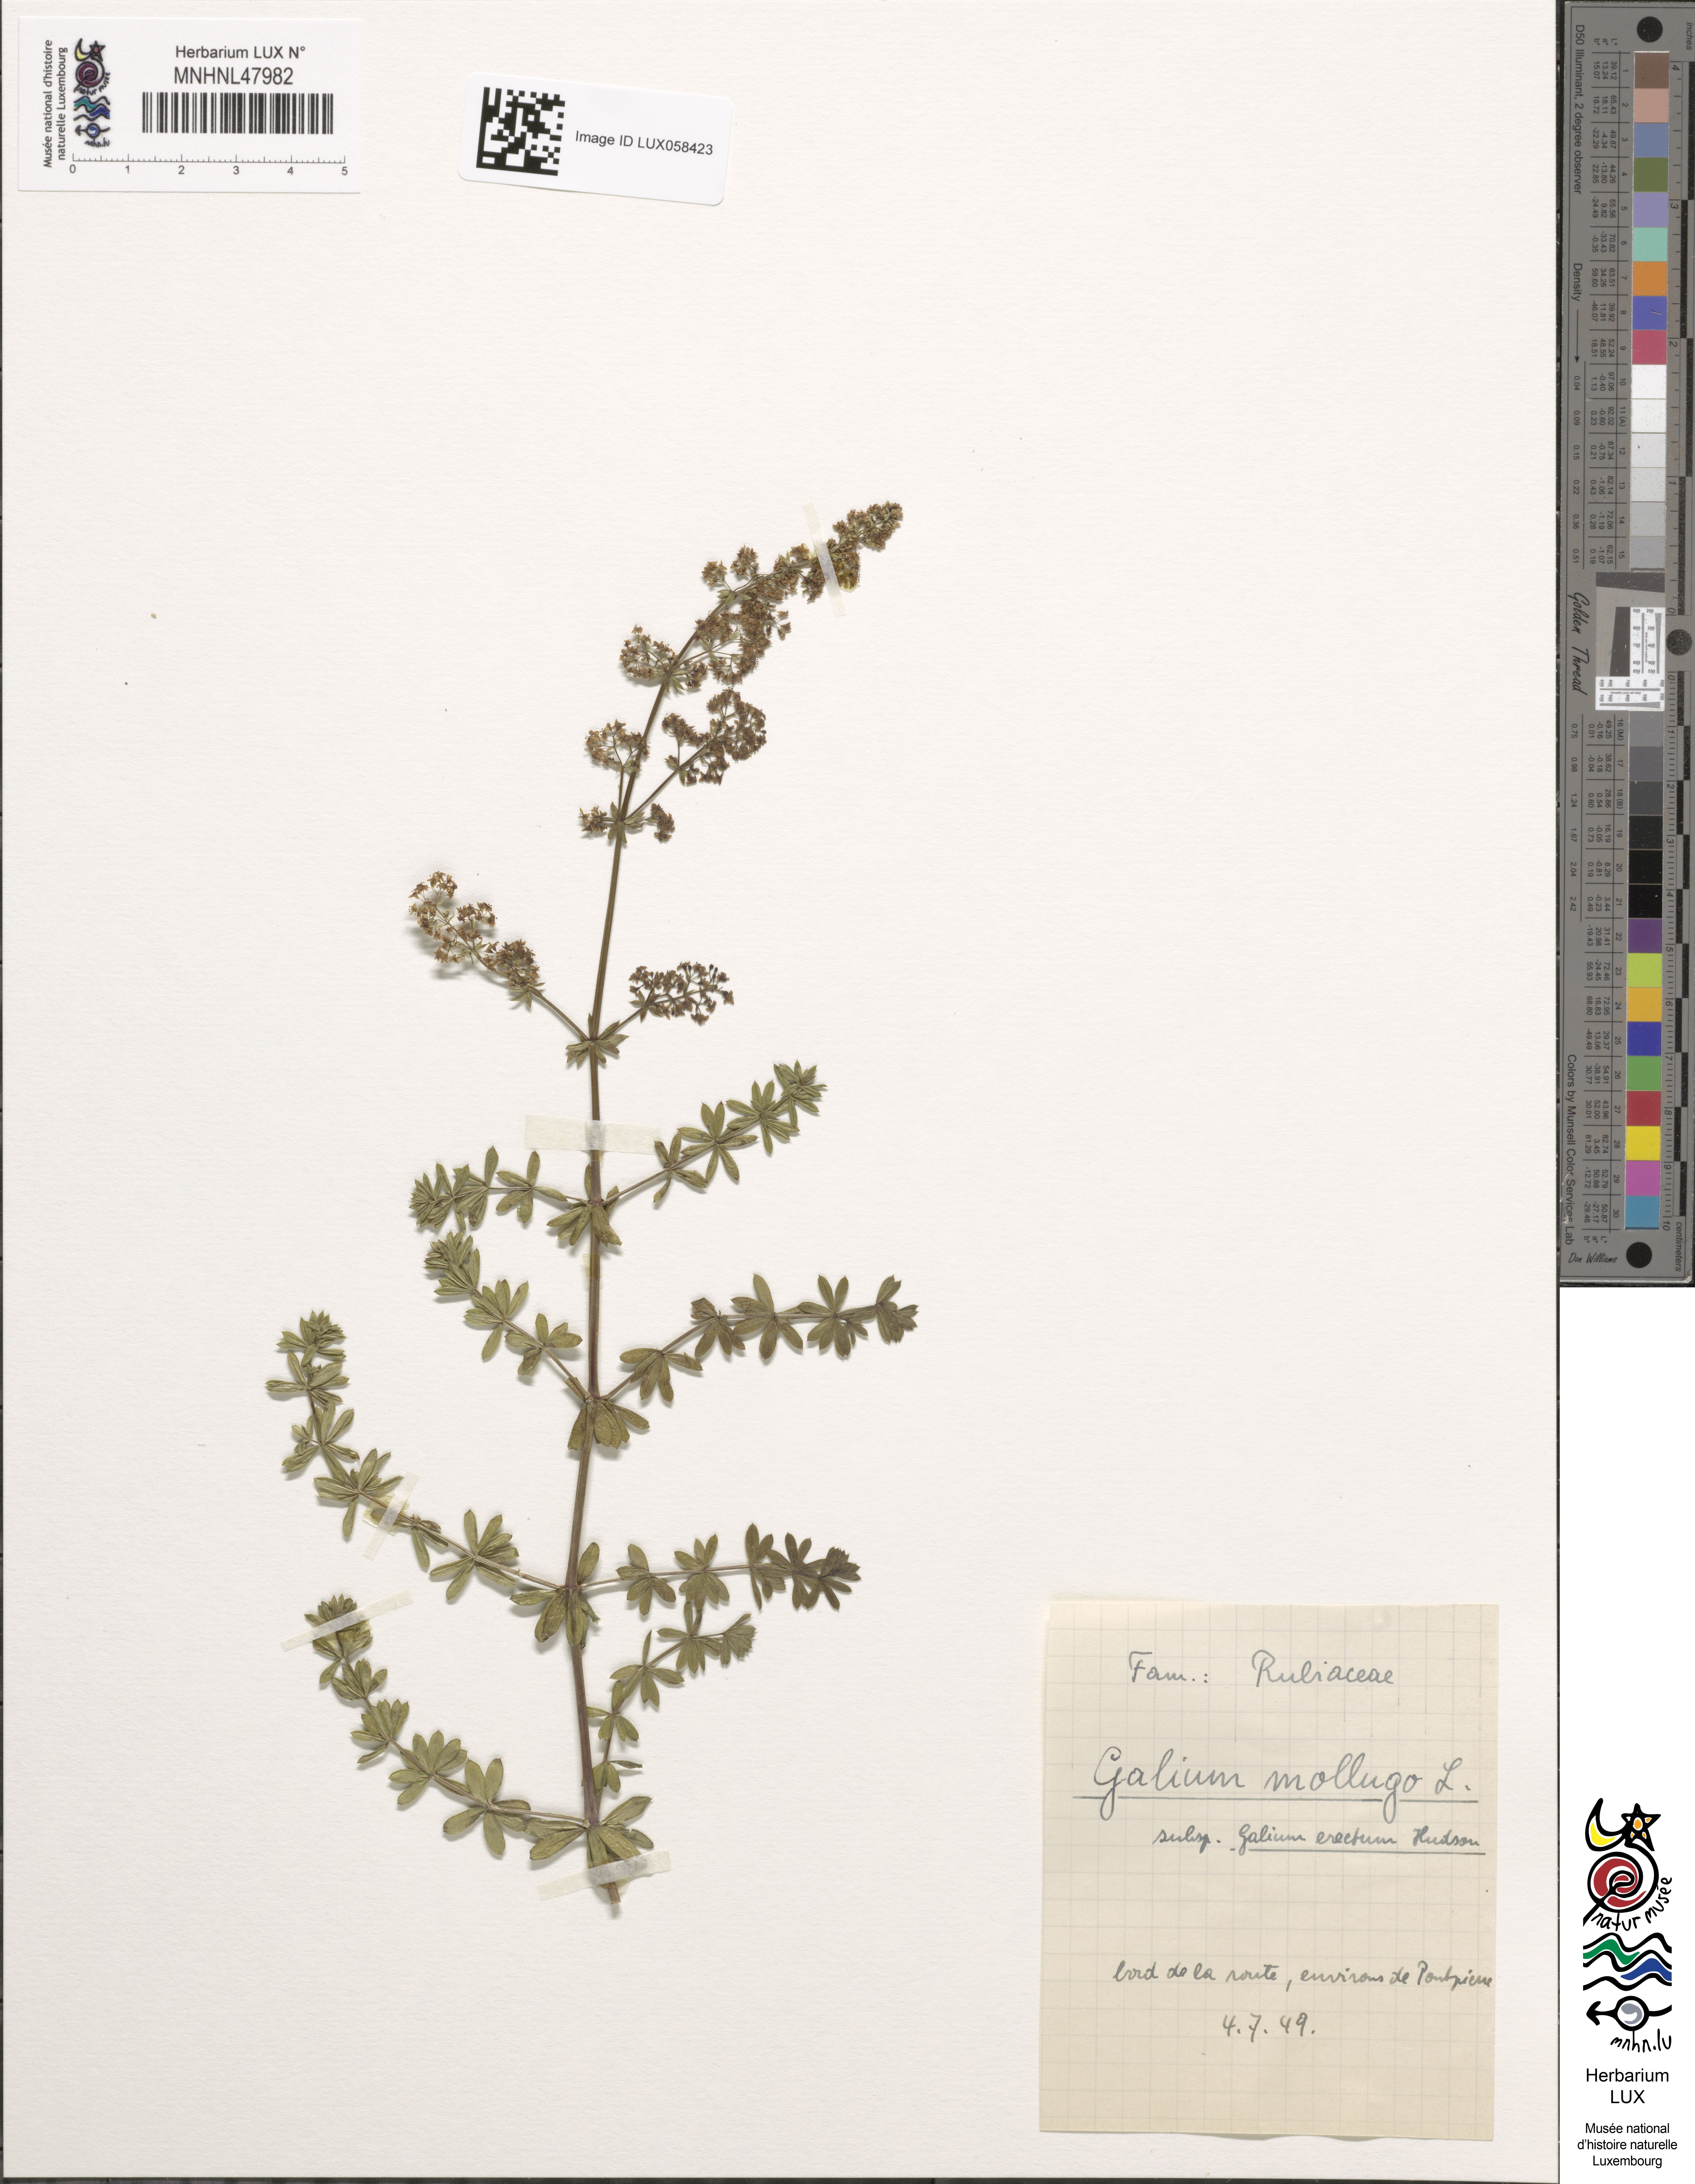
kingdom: Plantae
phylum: Tracheophyta
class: Magnoliopsida
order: Gentianales
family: Rubiaceae
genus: Galium
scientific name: Galium album
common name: White bedstraw
